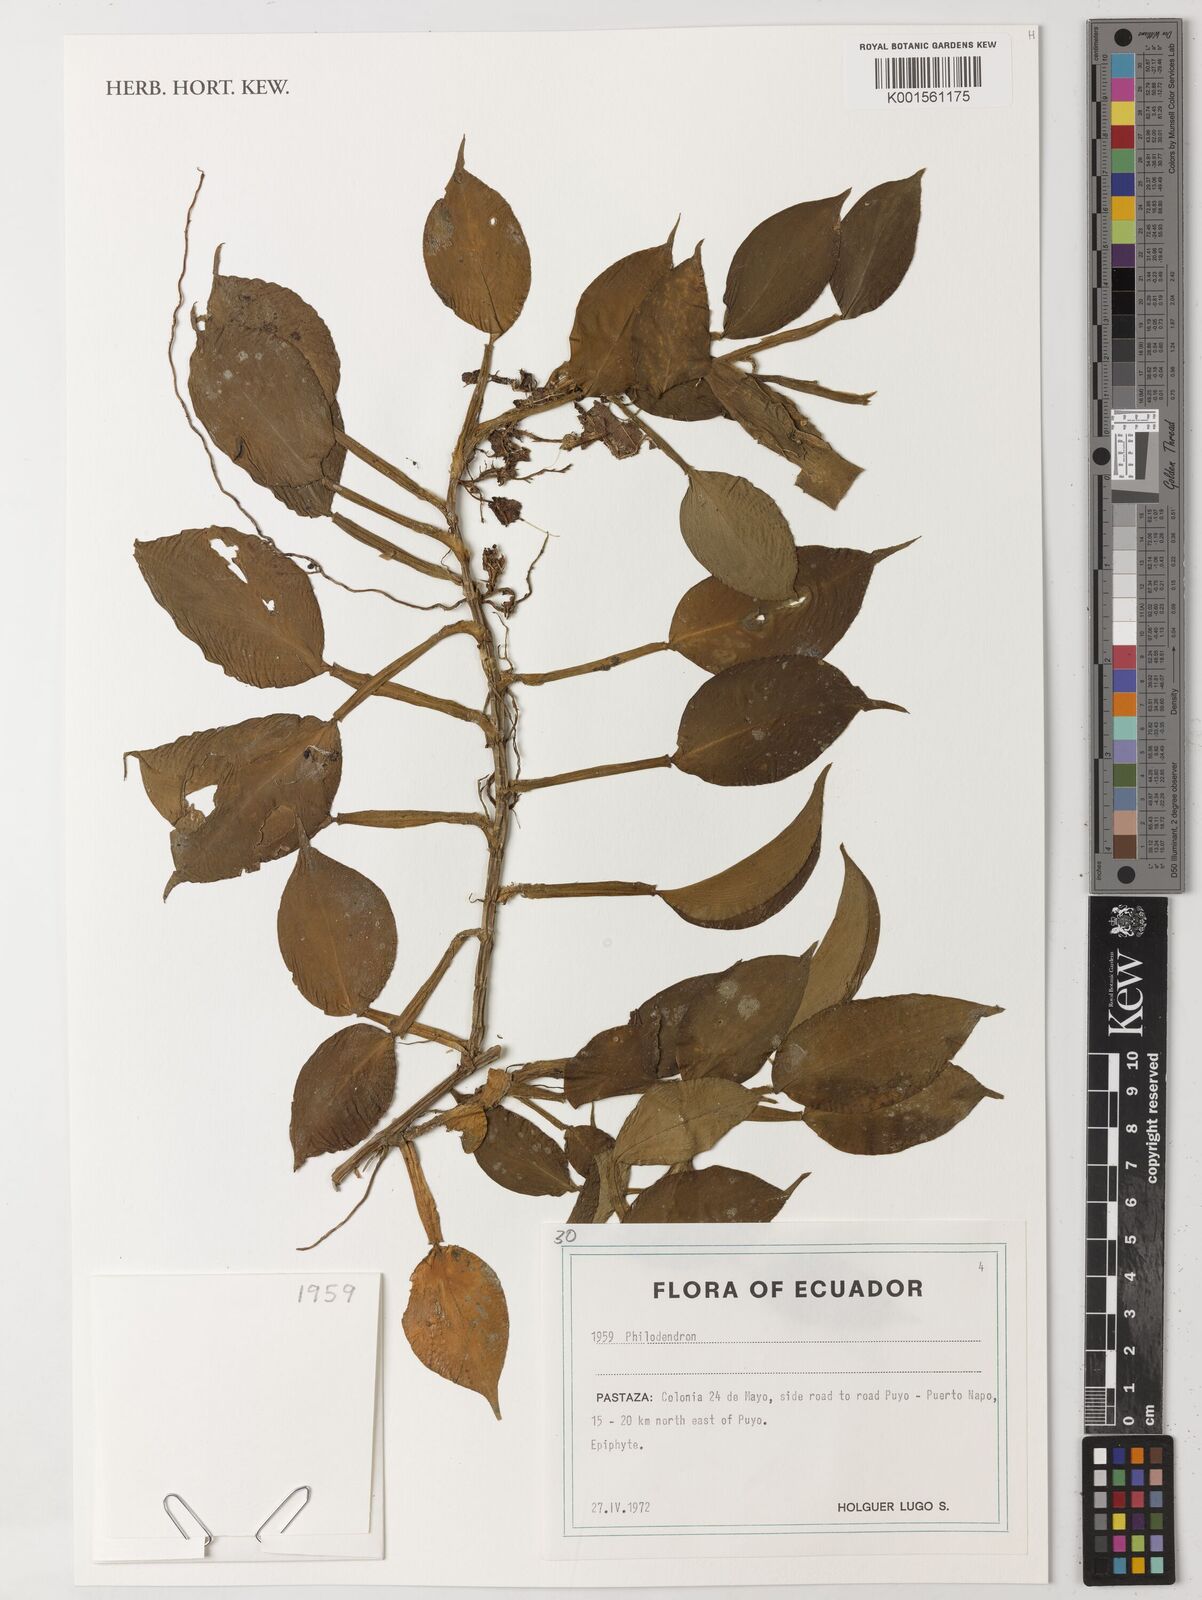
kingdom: Plantae
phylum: Tracheophyta
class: Liliopsida
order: Alismatales
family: Araceae
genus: Philodendron
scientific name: Philodendron
